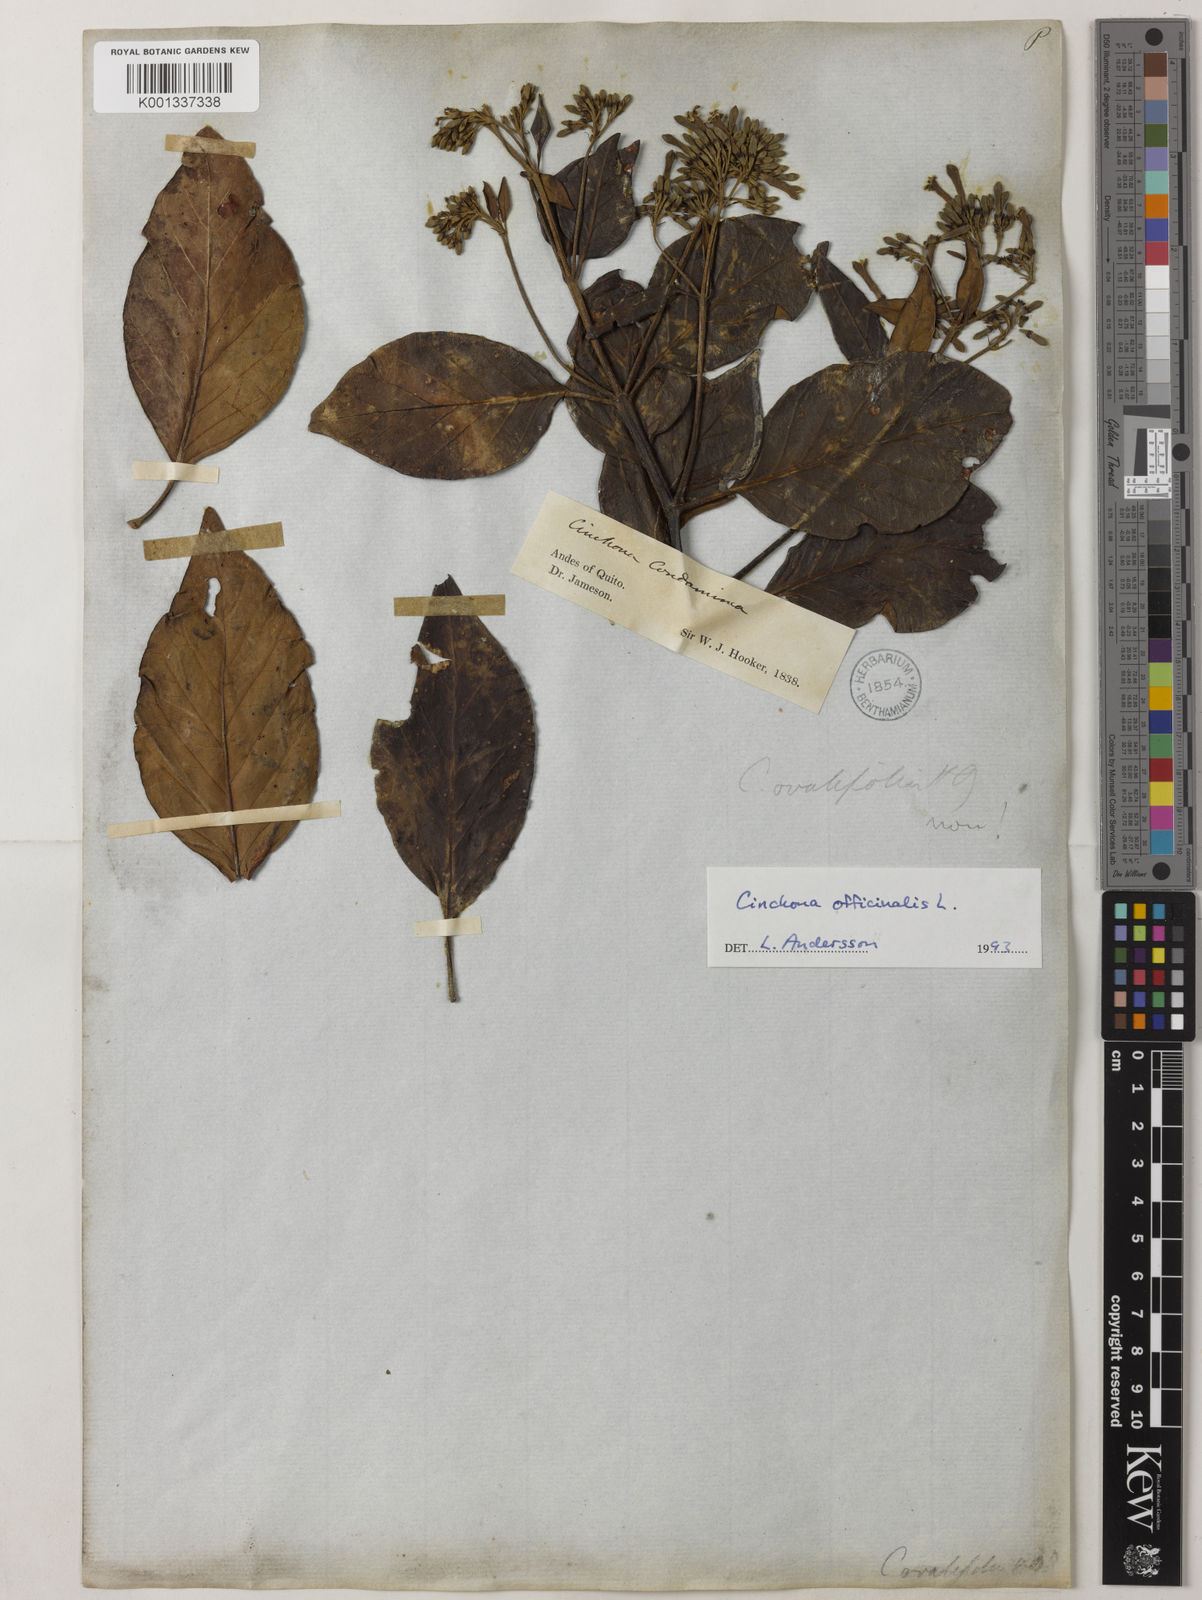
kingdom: Plantae
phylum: Tracheophyta
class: Magnoliopsida
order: Gentianales
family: Rubiaceae
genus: Cinchona
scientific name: Cinchona officinalis
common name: Lojabark
